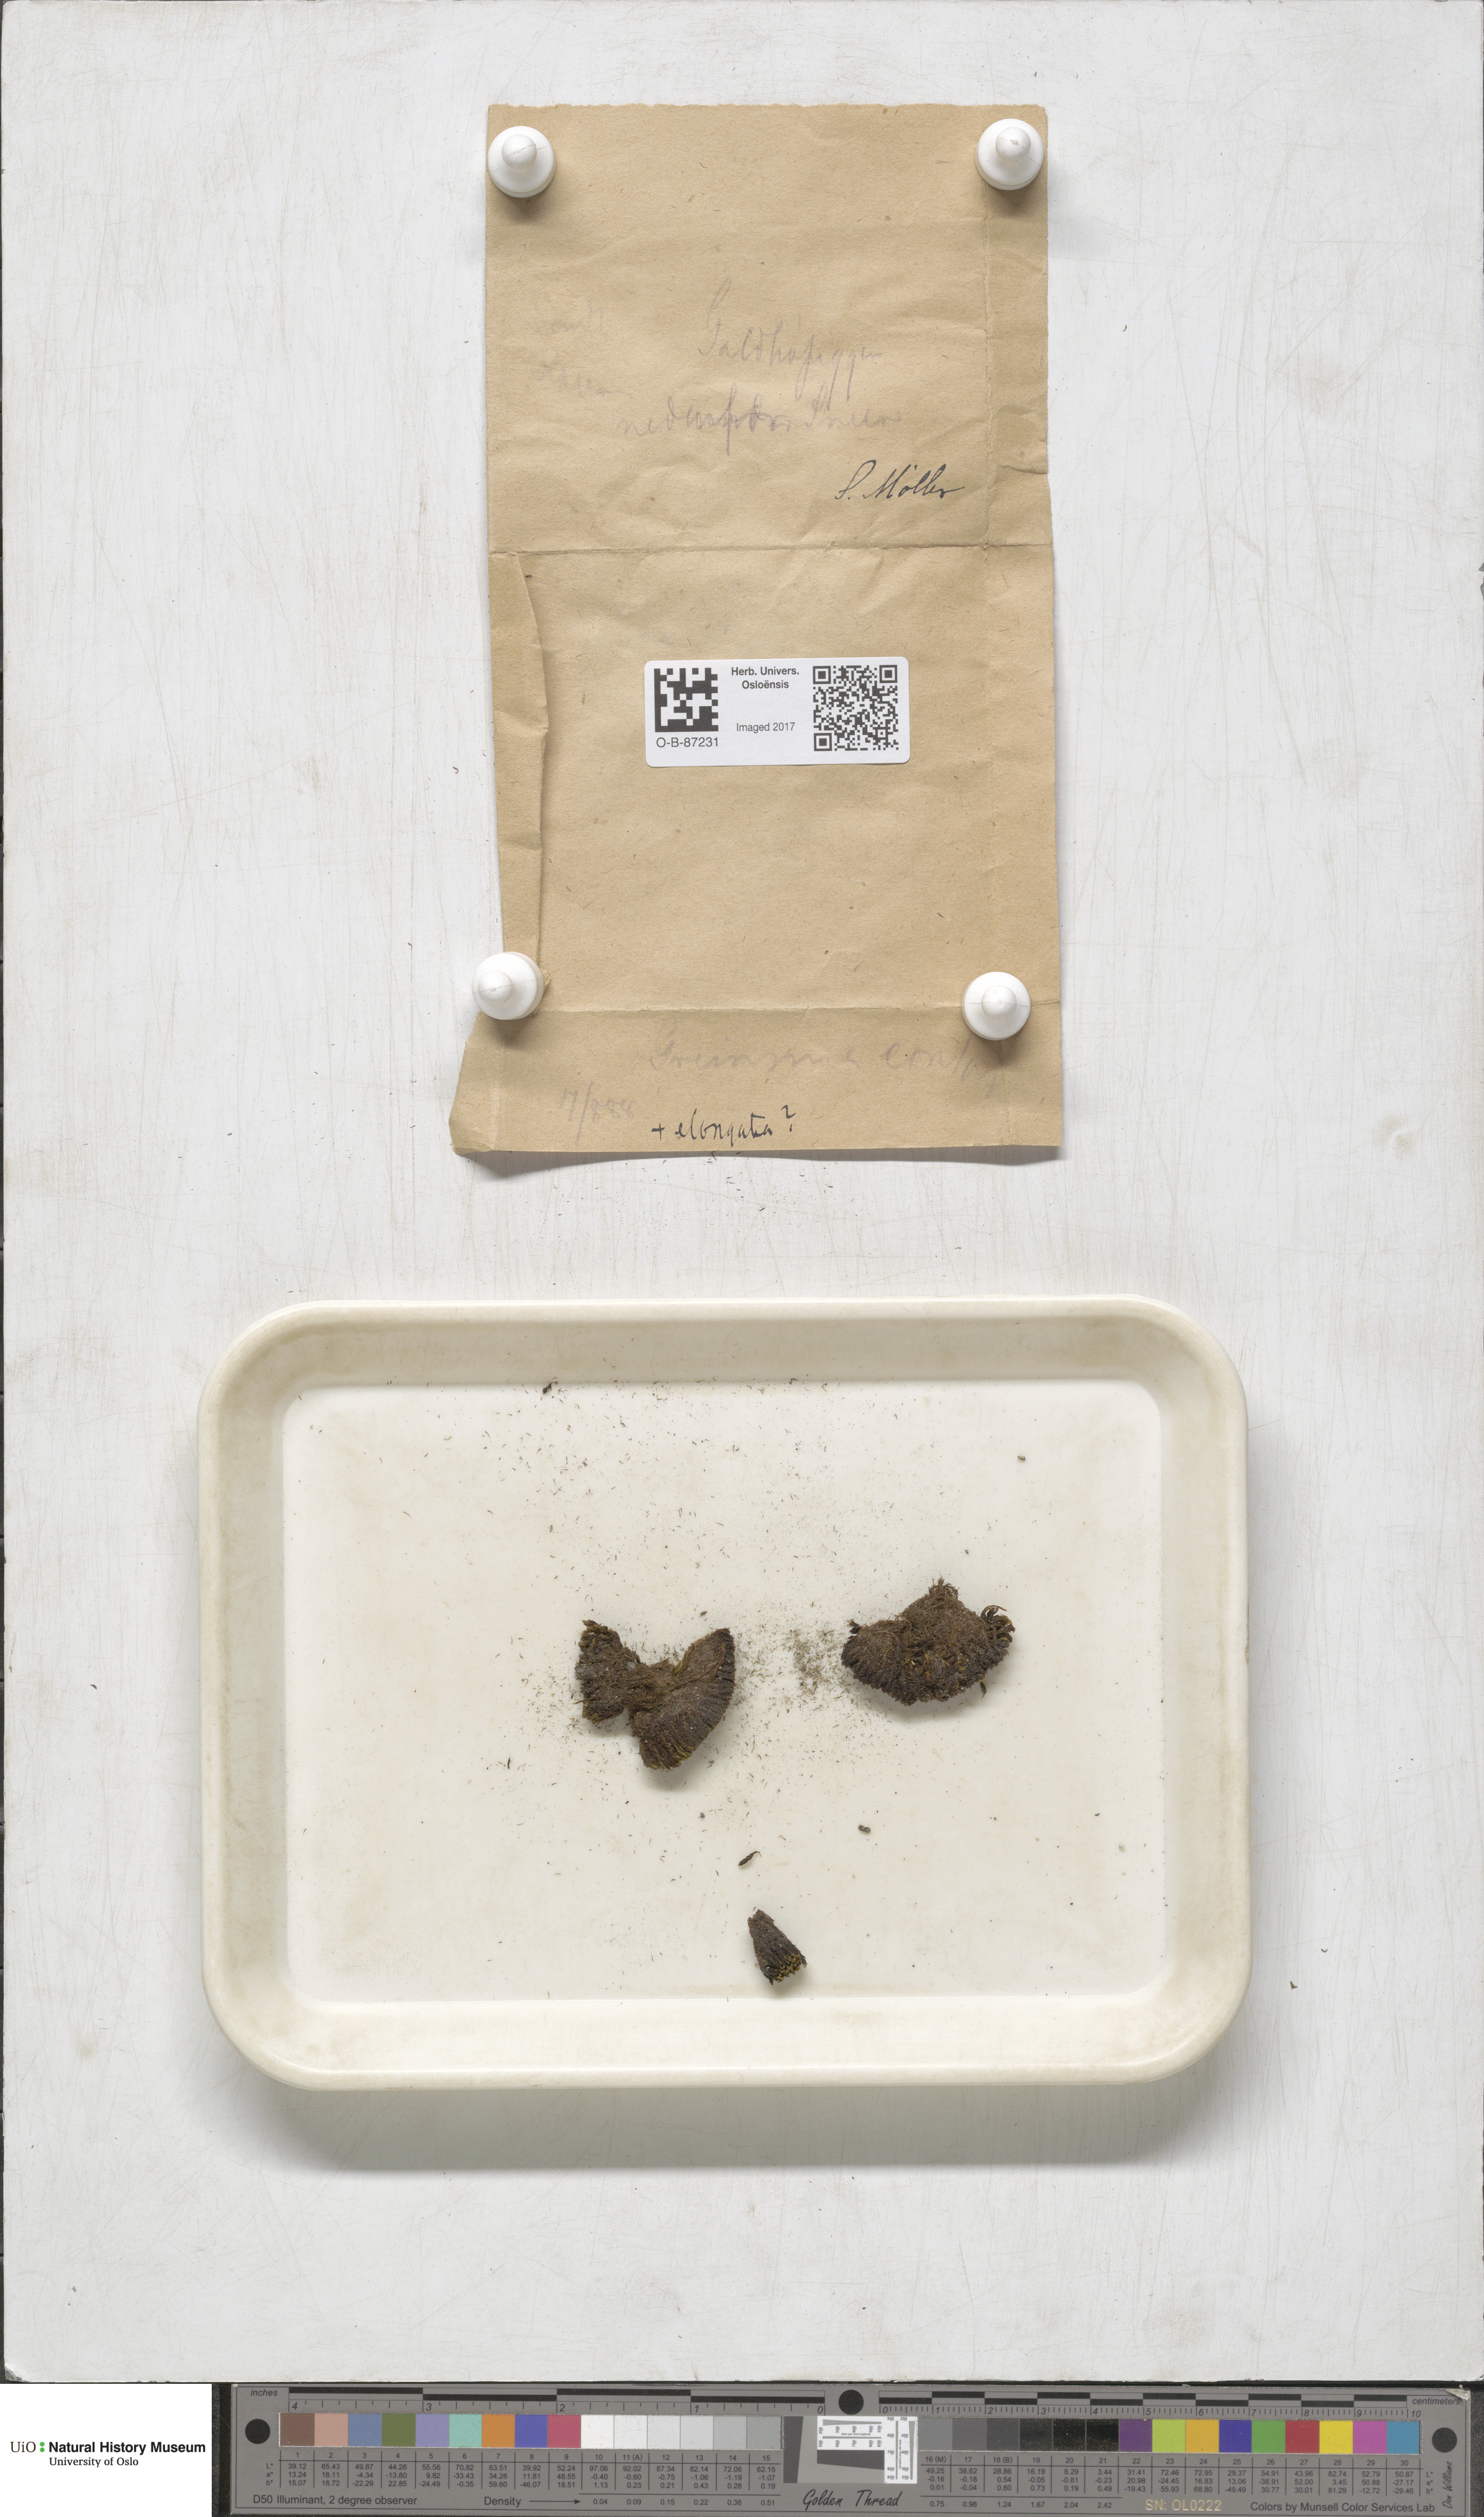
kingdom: Plantae
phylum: Bryophyta
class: Bryopsida
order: Grimmiales
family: Grimmiaceae
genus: Grimmia
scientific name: Grimmia incurva
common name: Black grimmia
